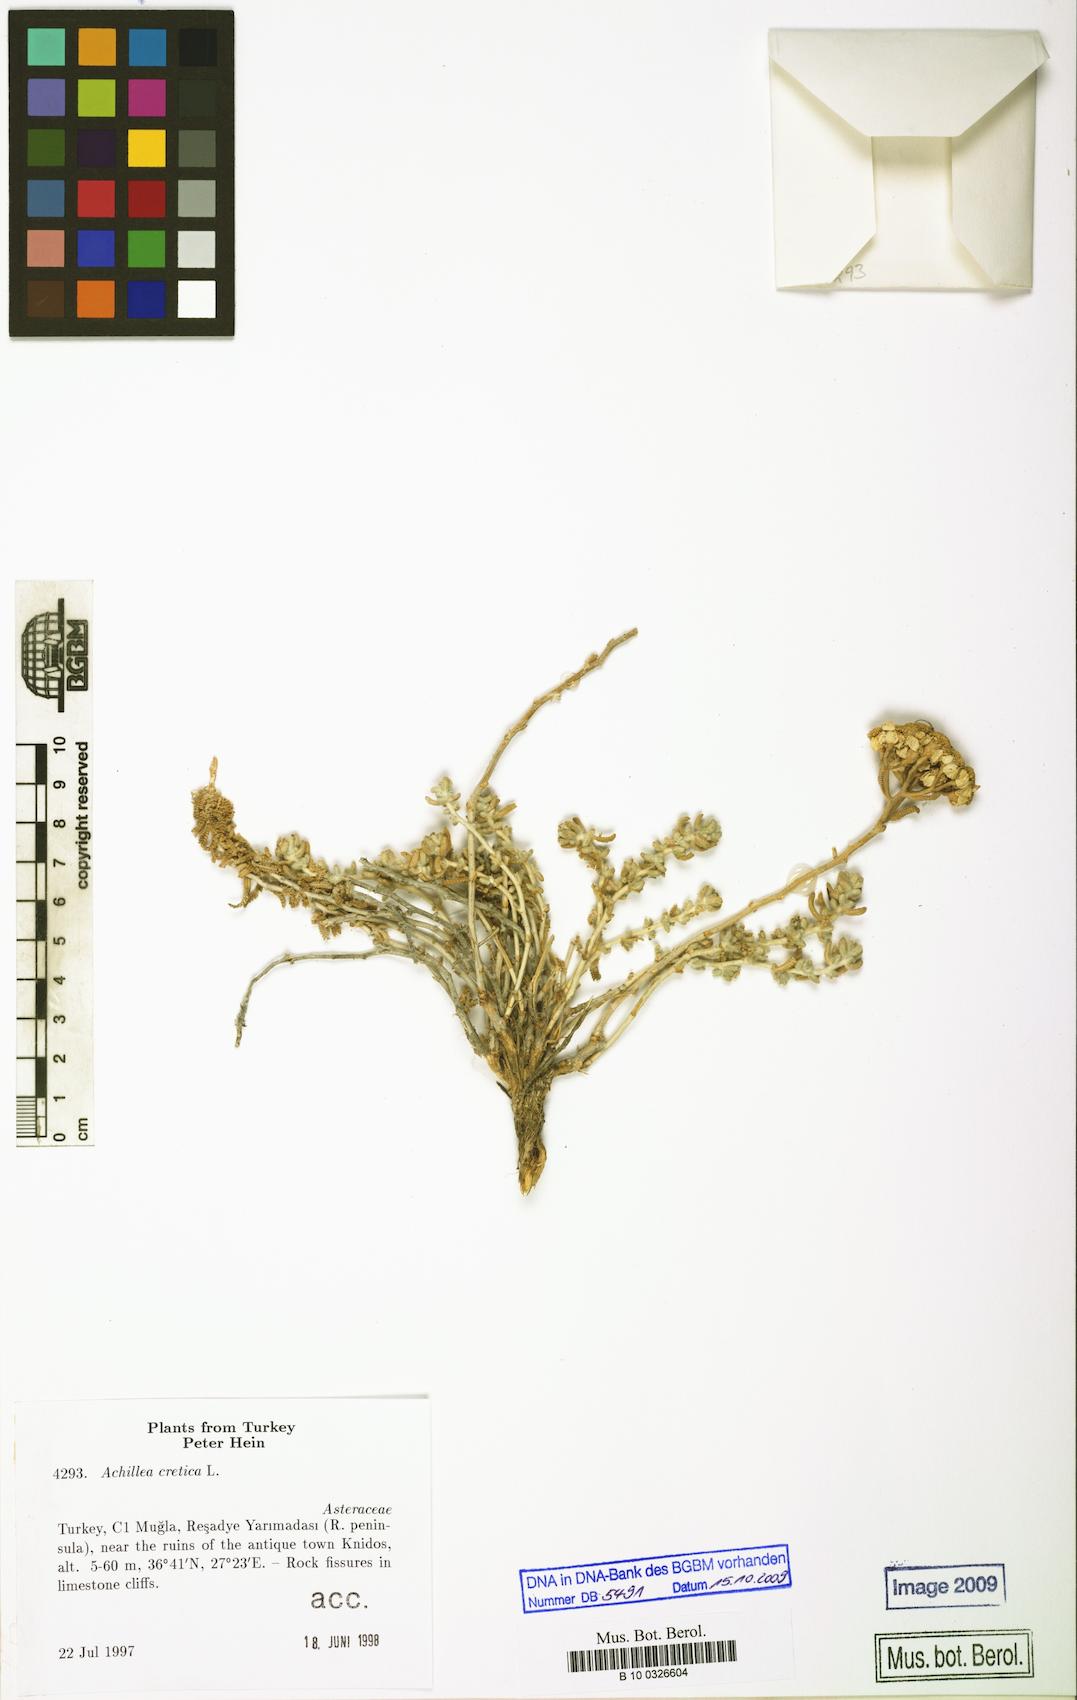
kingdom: Plantae
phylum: Tracheophyta
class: Magnoliopsida
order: Asterales
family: Asteraceae
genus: Achillea
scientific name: Achillea cretica
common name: Chamomile-leaved lavender-cotton
